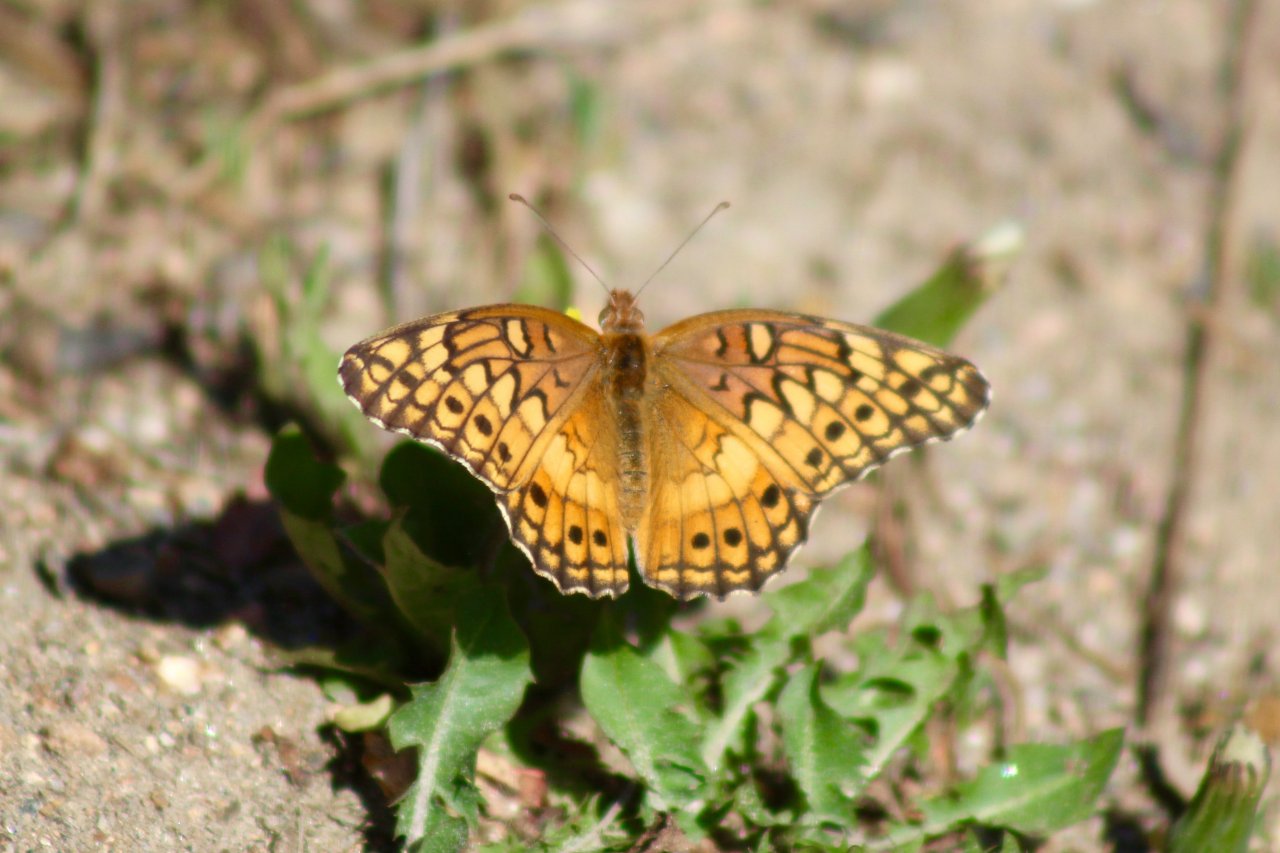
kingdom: Animalia
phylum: Arthropoda
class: Insecta
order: Lepidoptera
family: Nymphalidae
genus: Euptoieta
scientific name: Euptoieta claudia
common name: Variegated Fritillary
